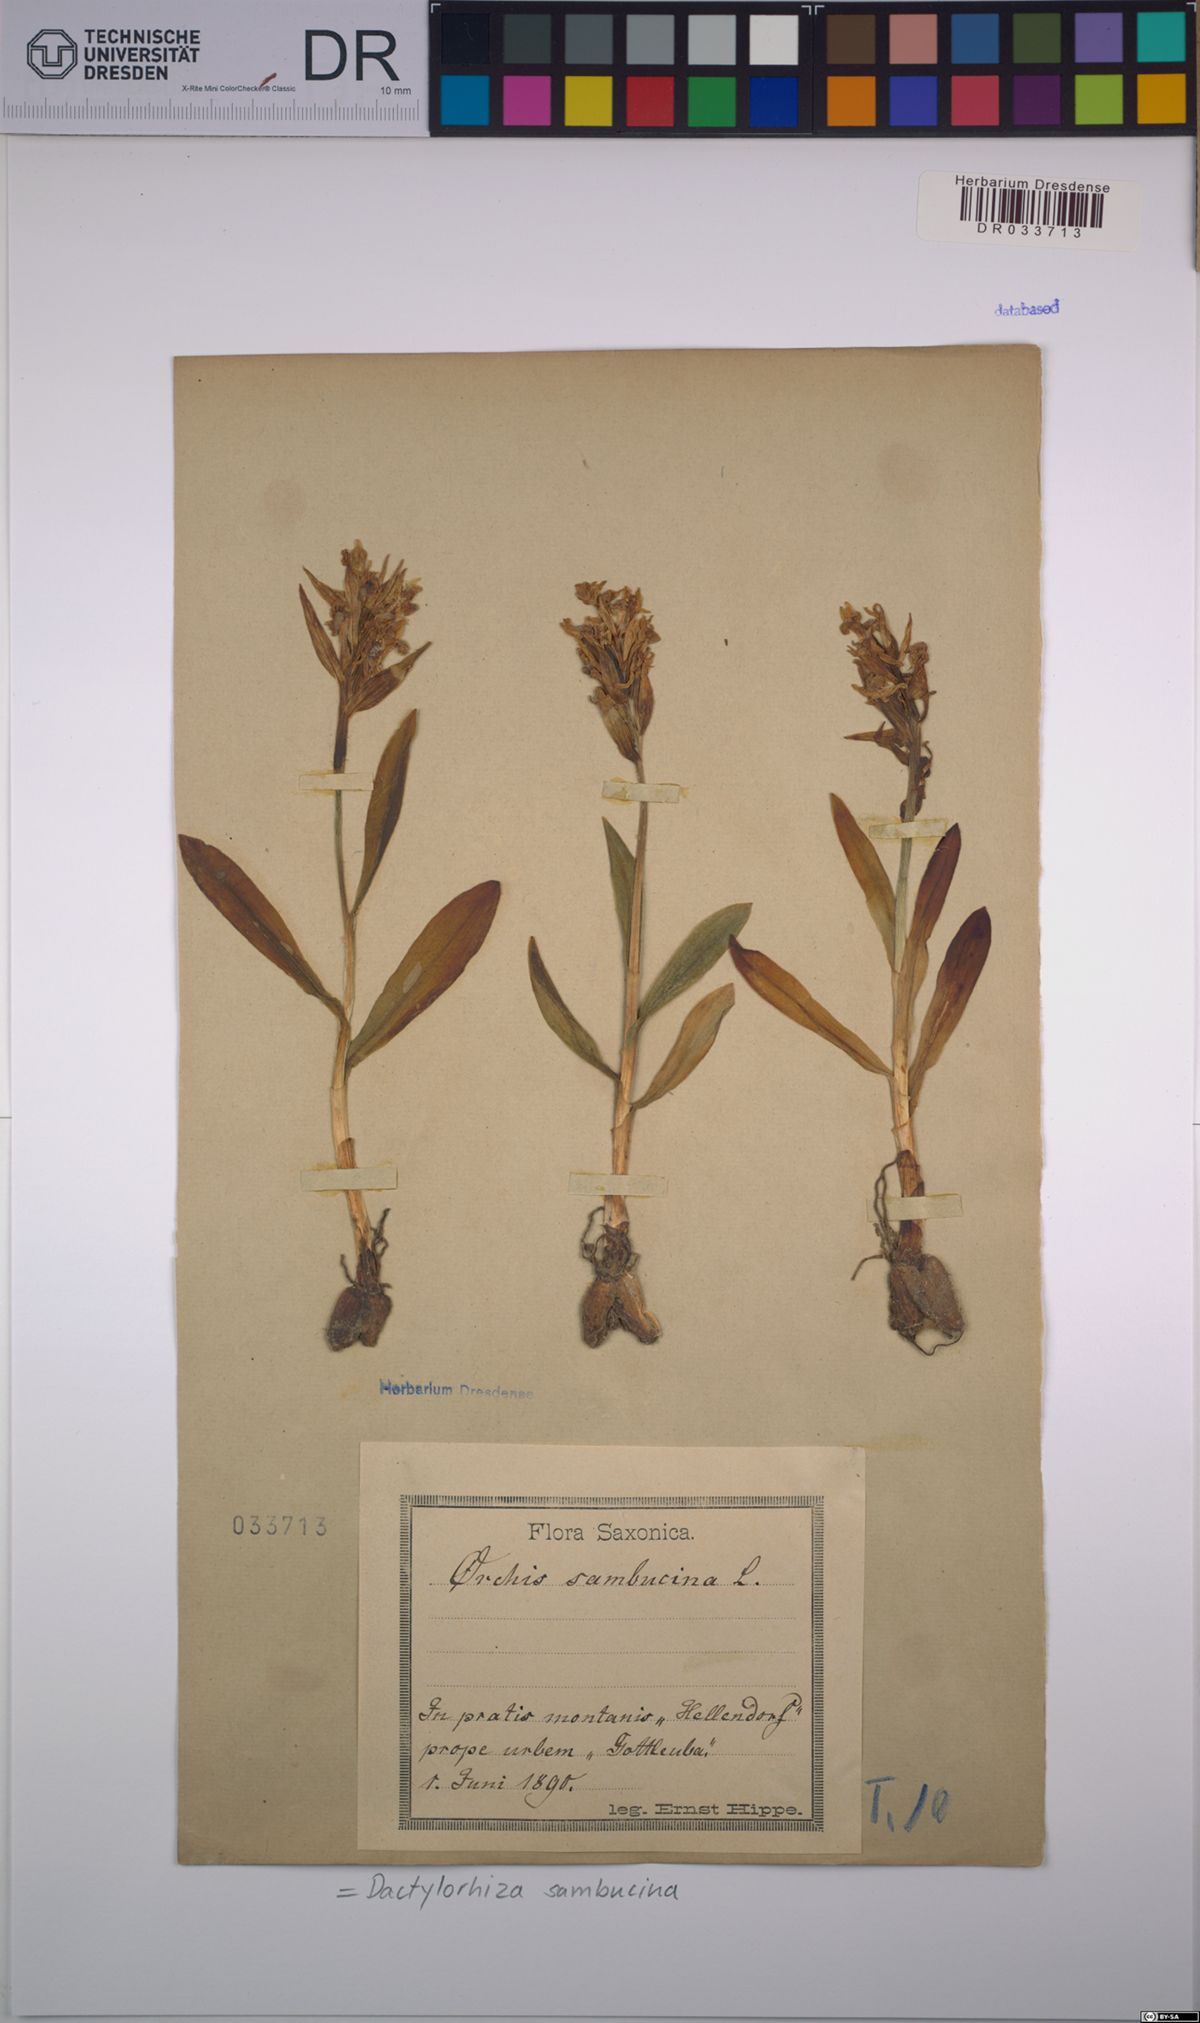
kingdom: Plantae
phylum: Tracheophyta
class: Liliopsida
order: Asparagales
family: Orchidaceae
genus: Dactylorhiza
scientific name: Dactylorhiza sambucina
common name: Elder-flowered orchid
